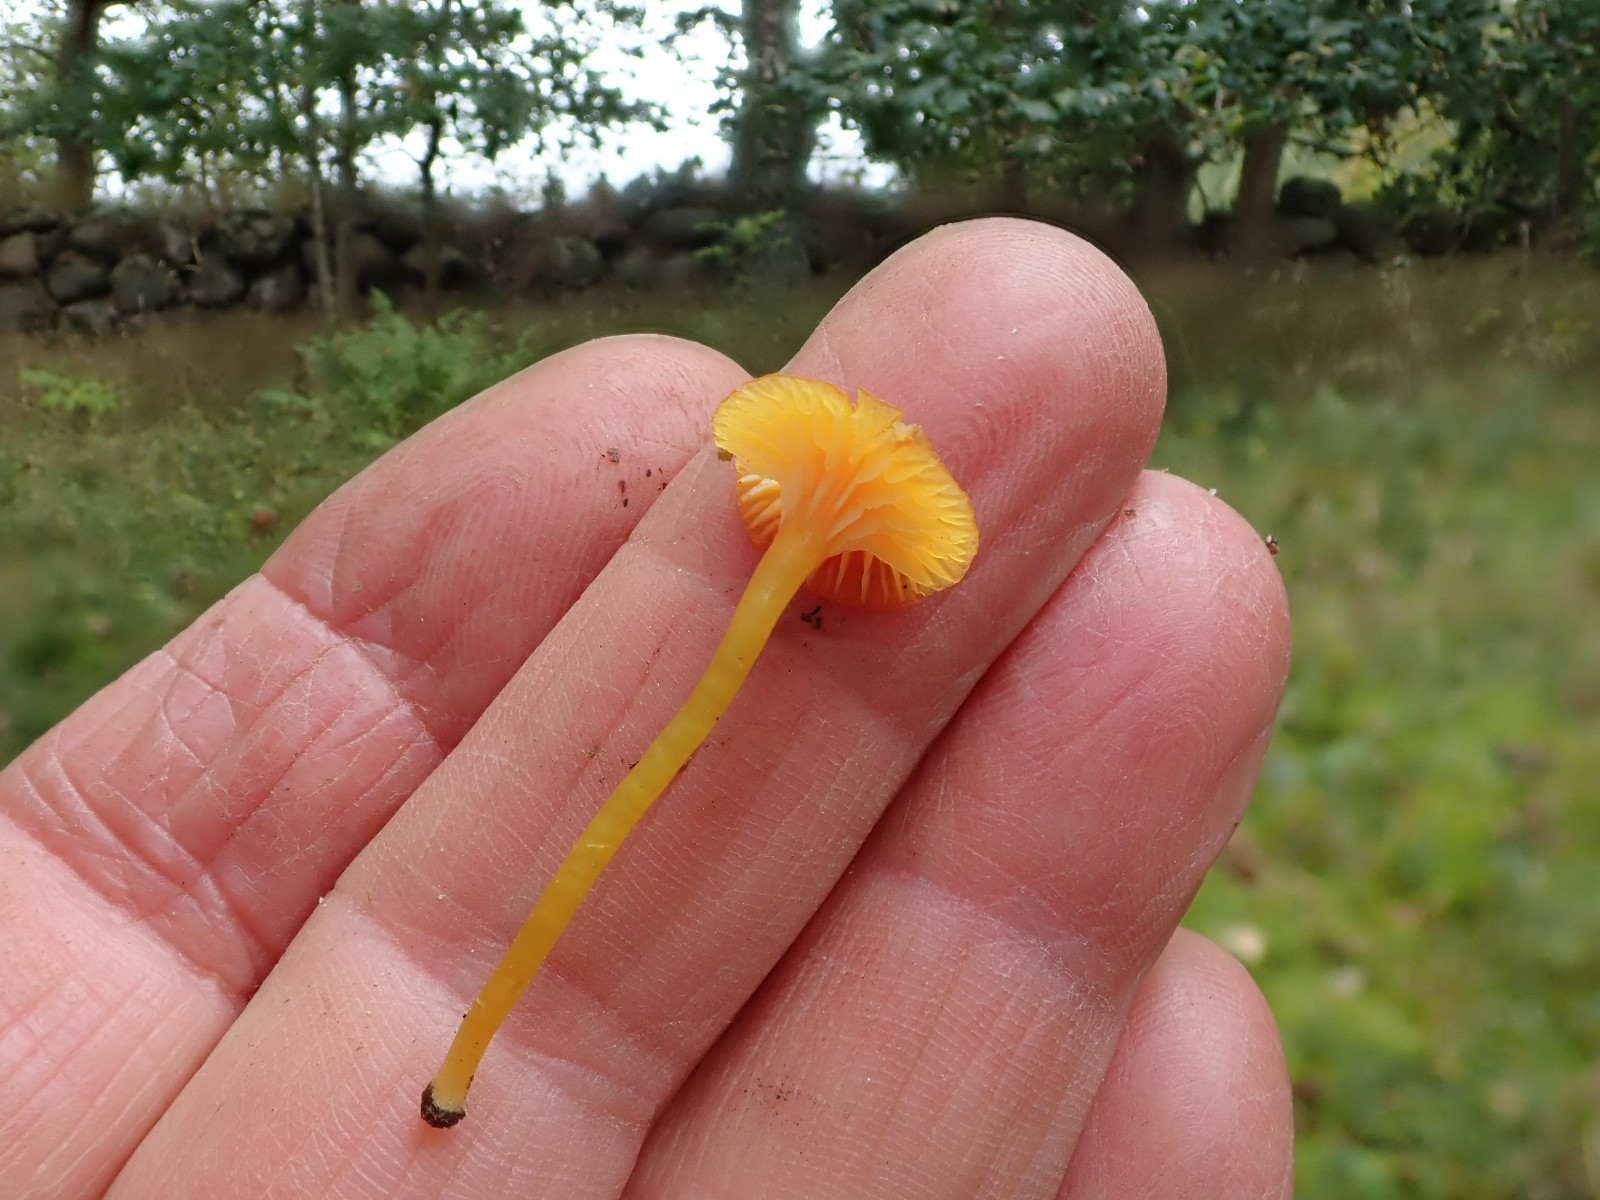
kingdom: Fungi
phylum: Basidiomycota
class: Agaricomycetes
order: Agaricales
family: Hygrophoraceae
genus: Hygrocybe
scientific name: Hygrocybe insipida
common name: liden vokshat
